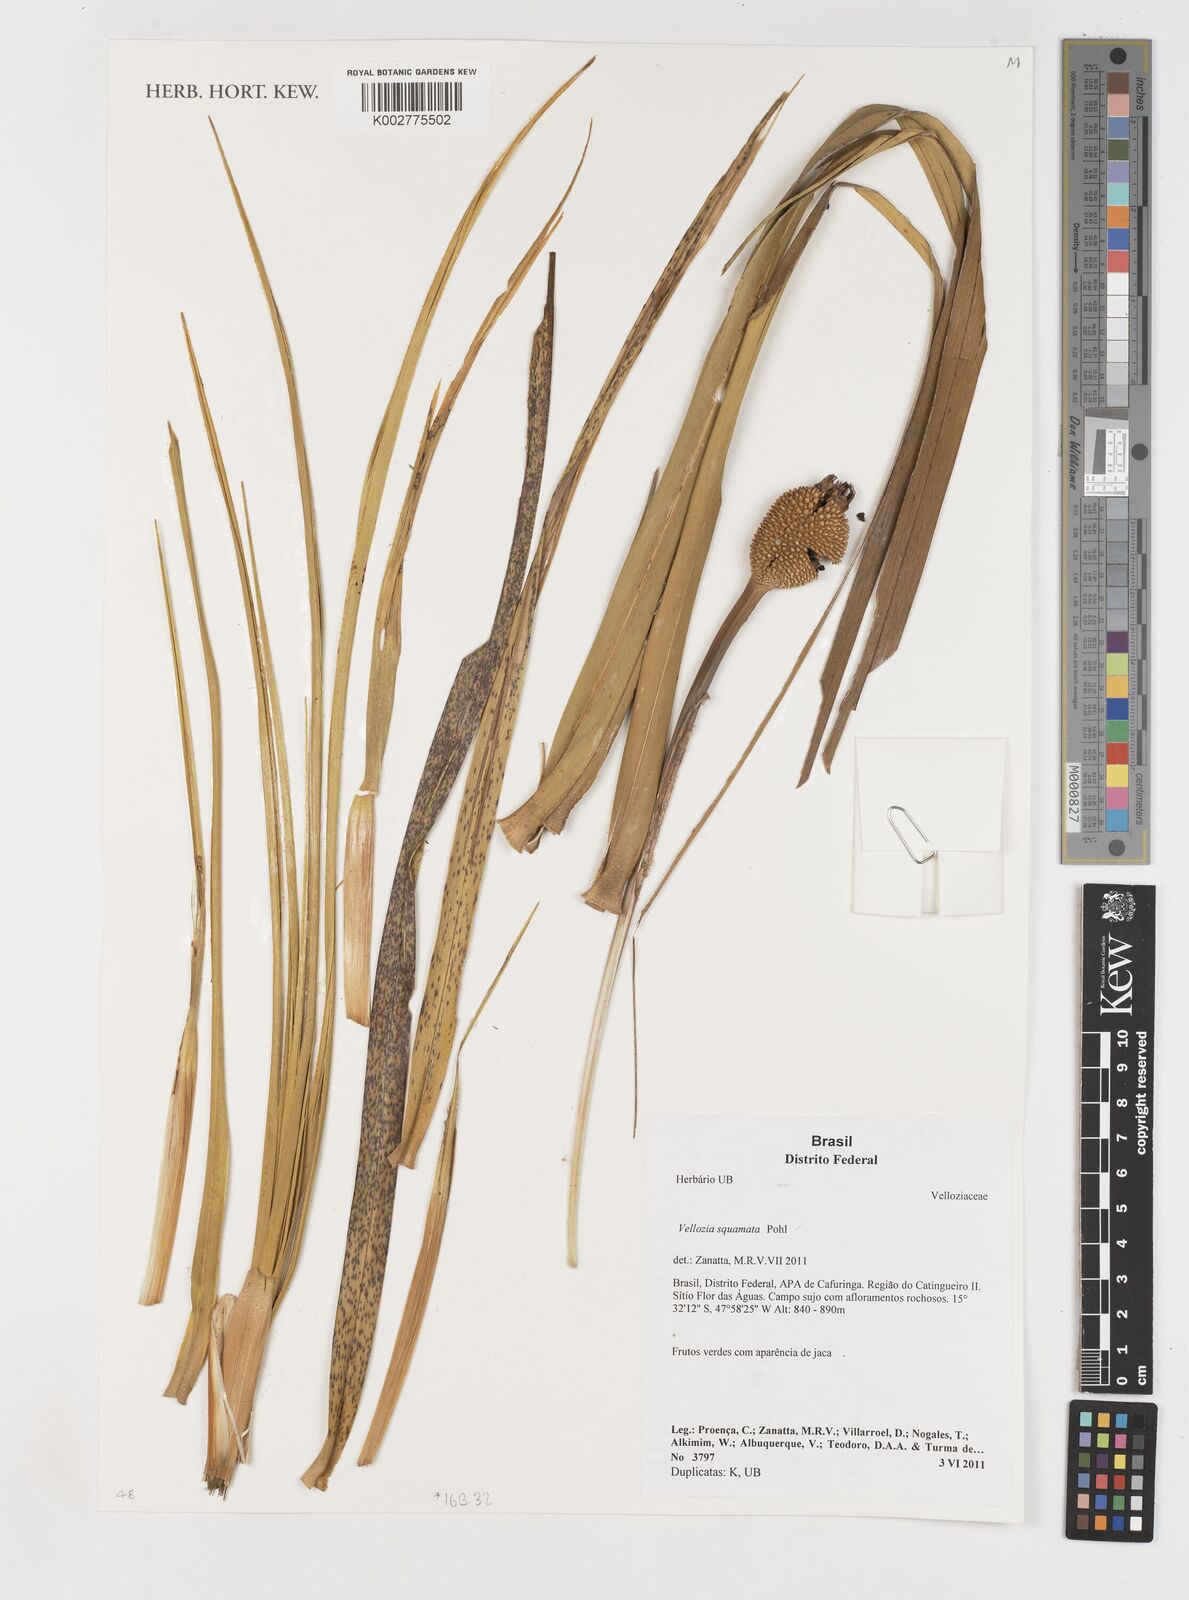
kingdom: Plantae
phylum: Tracheophyta
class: Liliopsida
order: Pandanales
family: Velloziaceae
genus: Vellozia
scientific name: Vellozia squamata
